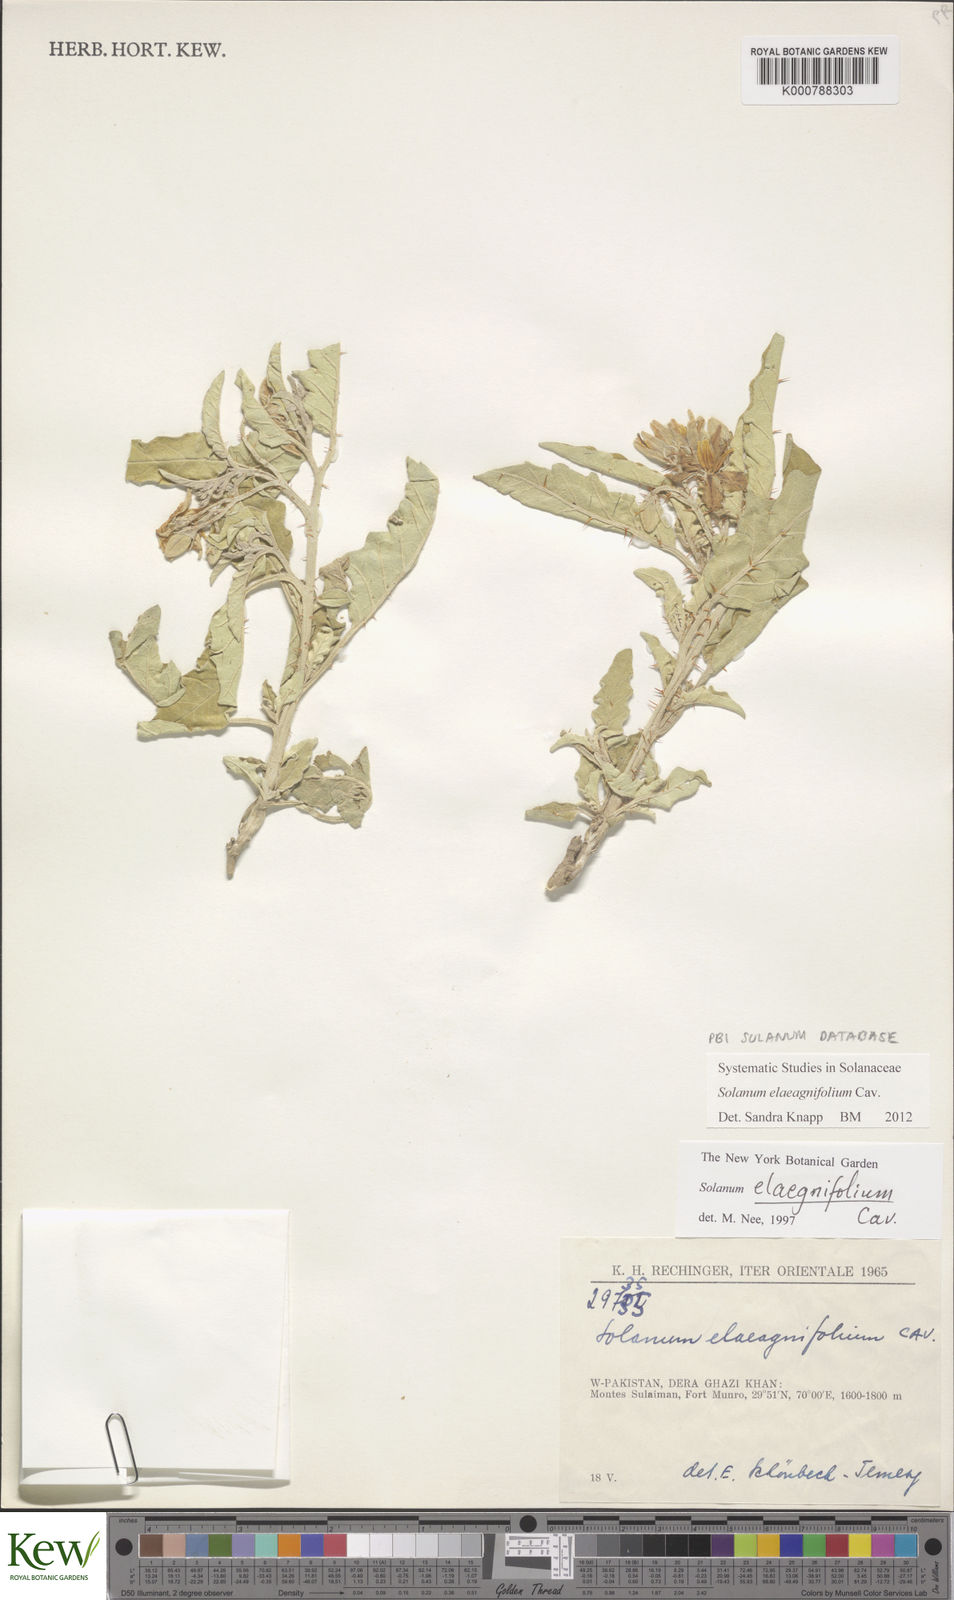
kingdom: Plantae
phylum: Tracheophyta
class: Magnoliopsida
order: Solanales
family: Solanaceae
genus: Solanum
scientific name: Solanum elaeagnifolium
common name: Silverleaf nightshade
